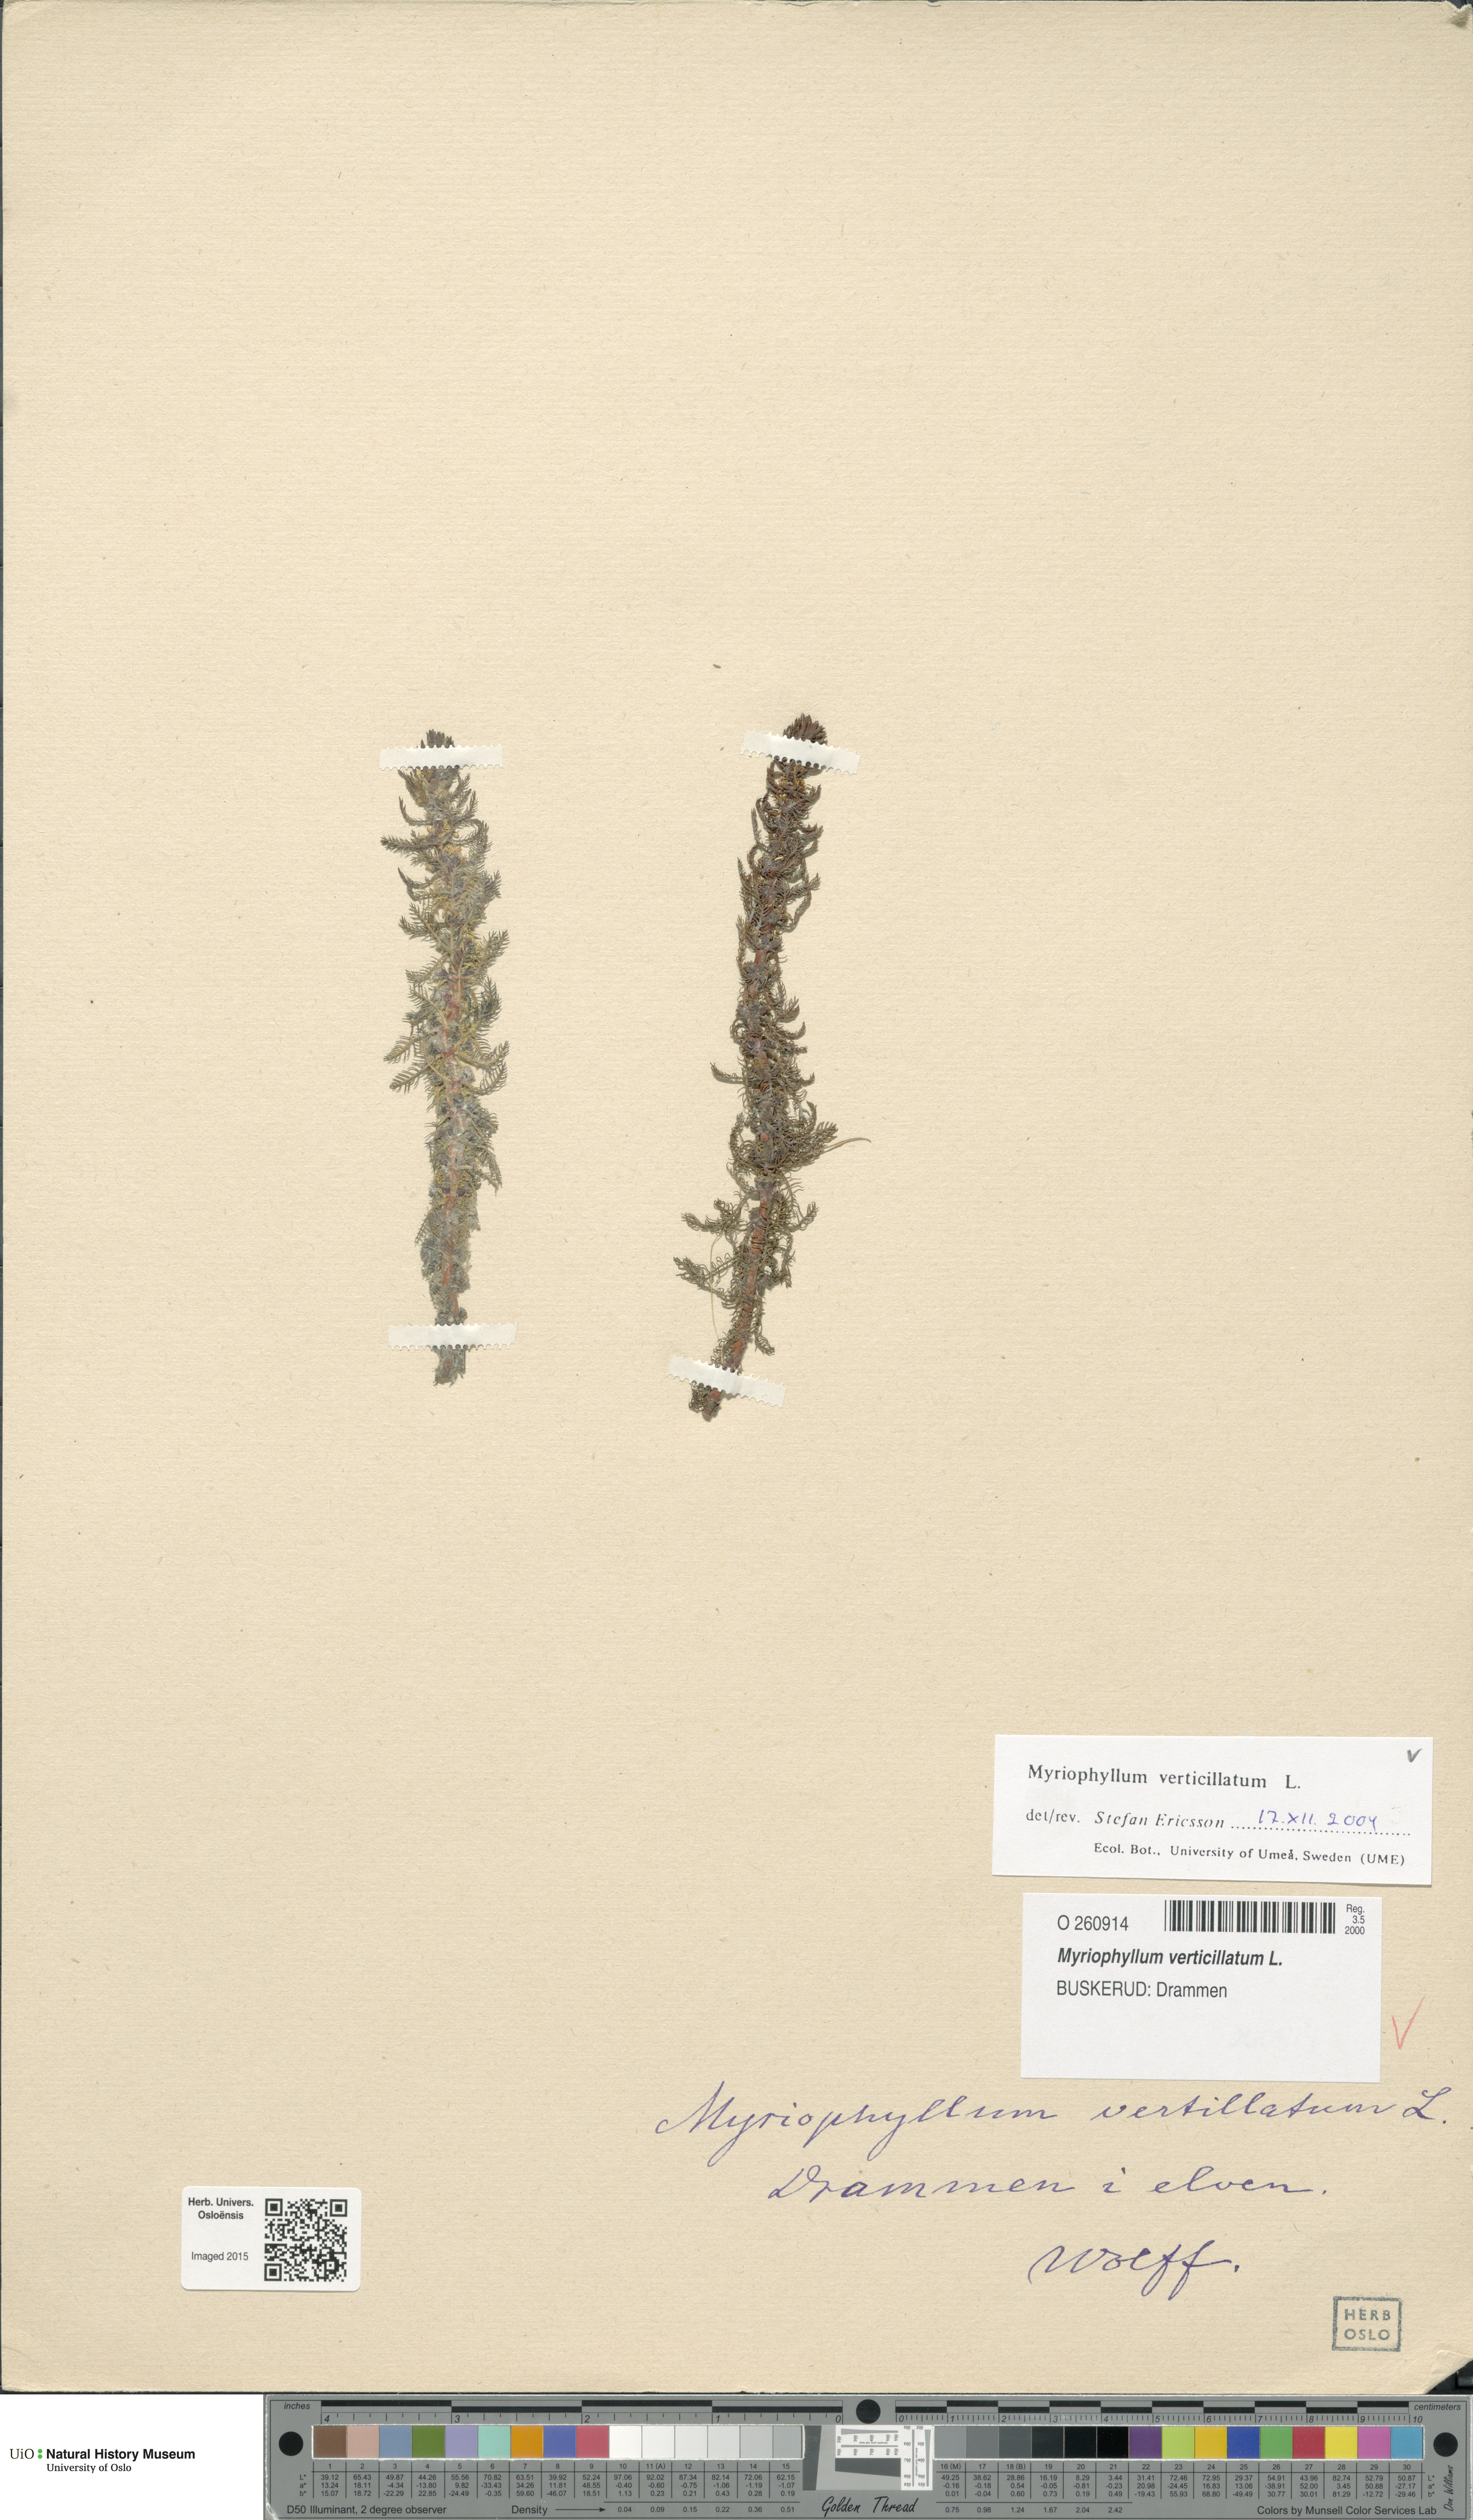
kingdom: Plantae
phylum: Tracheophyta
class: Magnoliopsida
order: Saxifragales
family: Haloragaceae
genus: Myriophyllum
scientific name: Myriophyllum verticillatum
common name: Whorled water-milfoil
